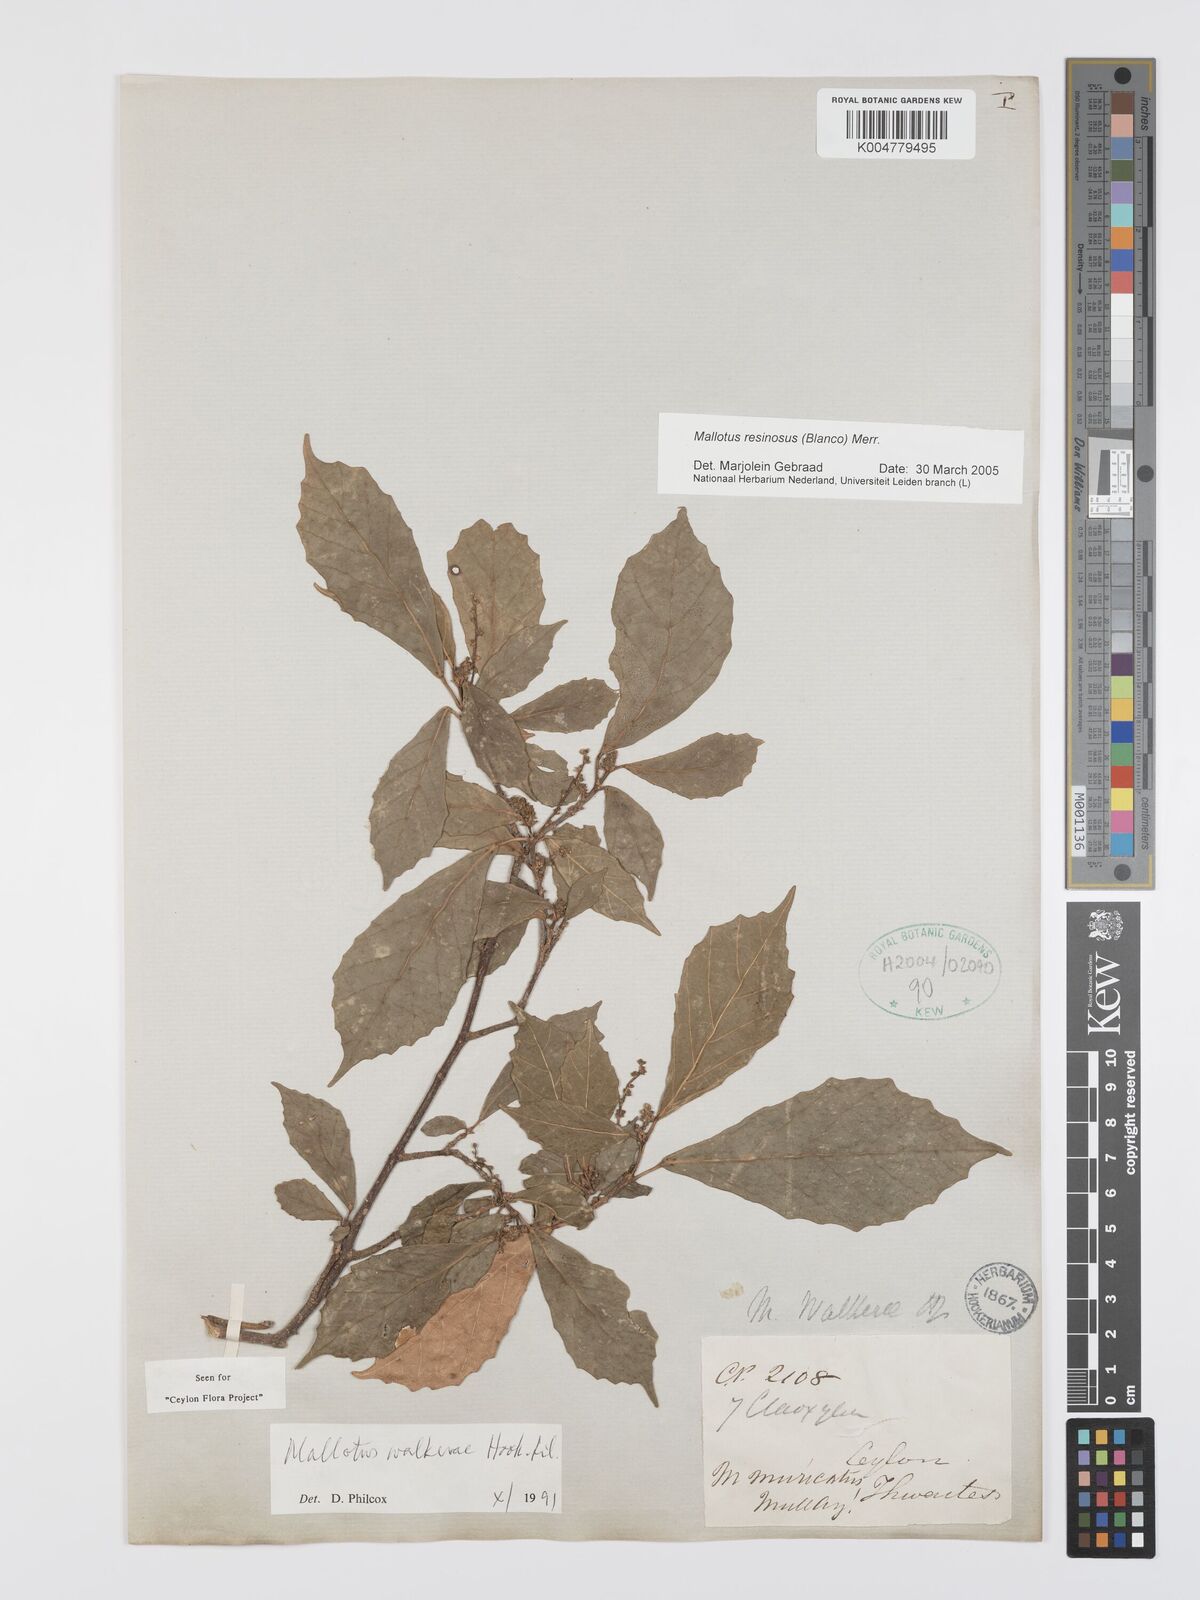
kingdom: Plantae
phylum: Tracheophyta
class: Magnoliopsida
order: Malpighiales
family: Euphorbiaceae
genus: Mallotus
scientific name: Mallotus resinosus
